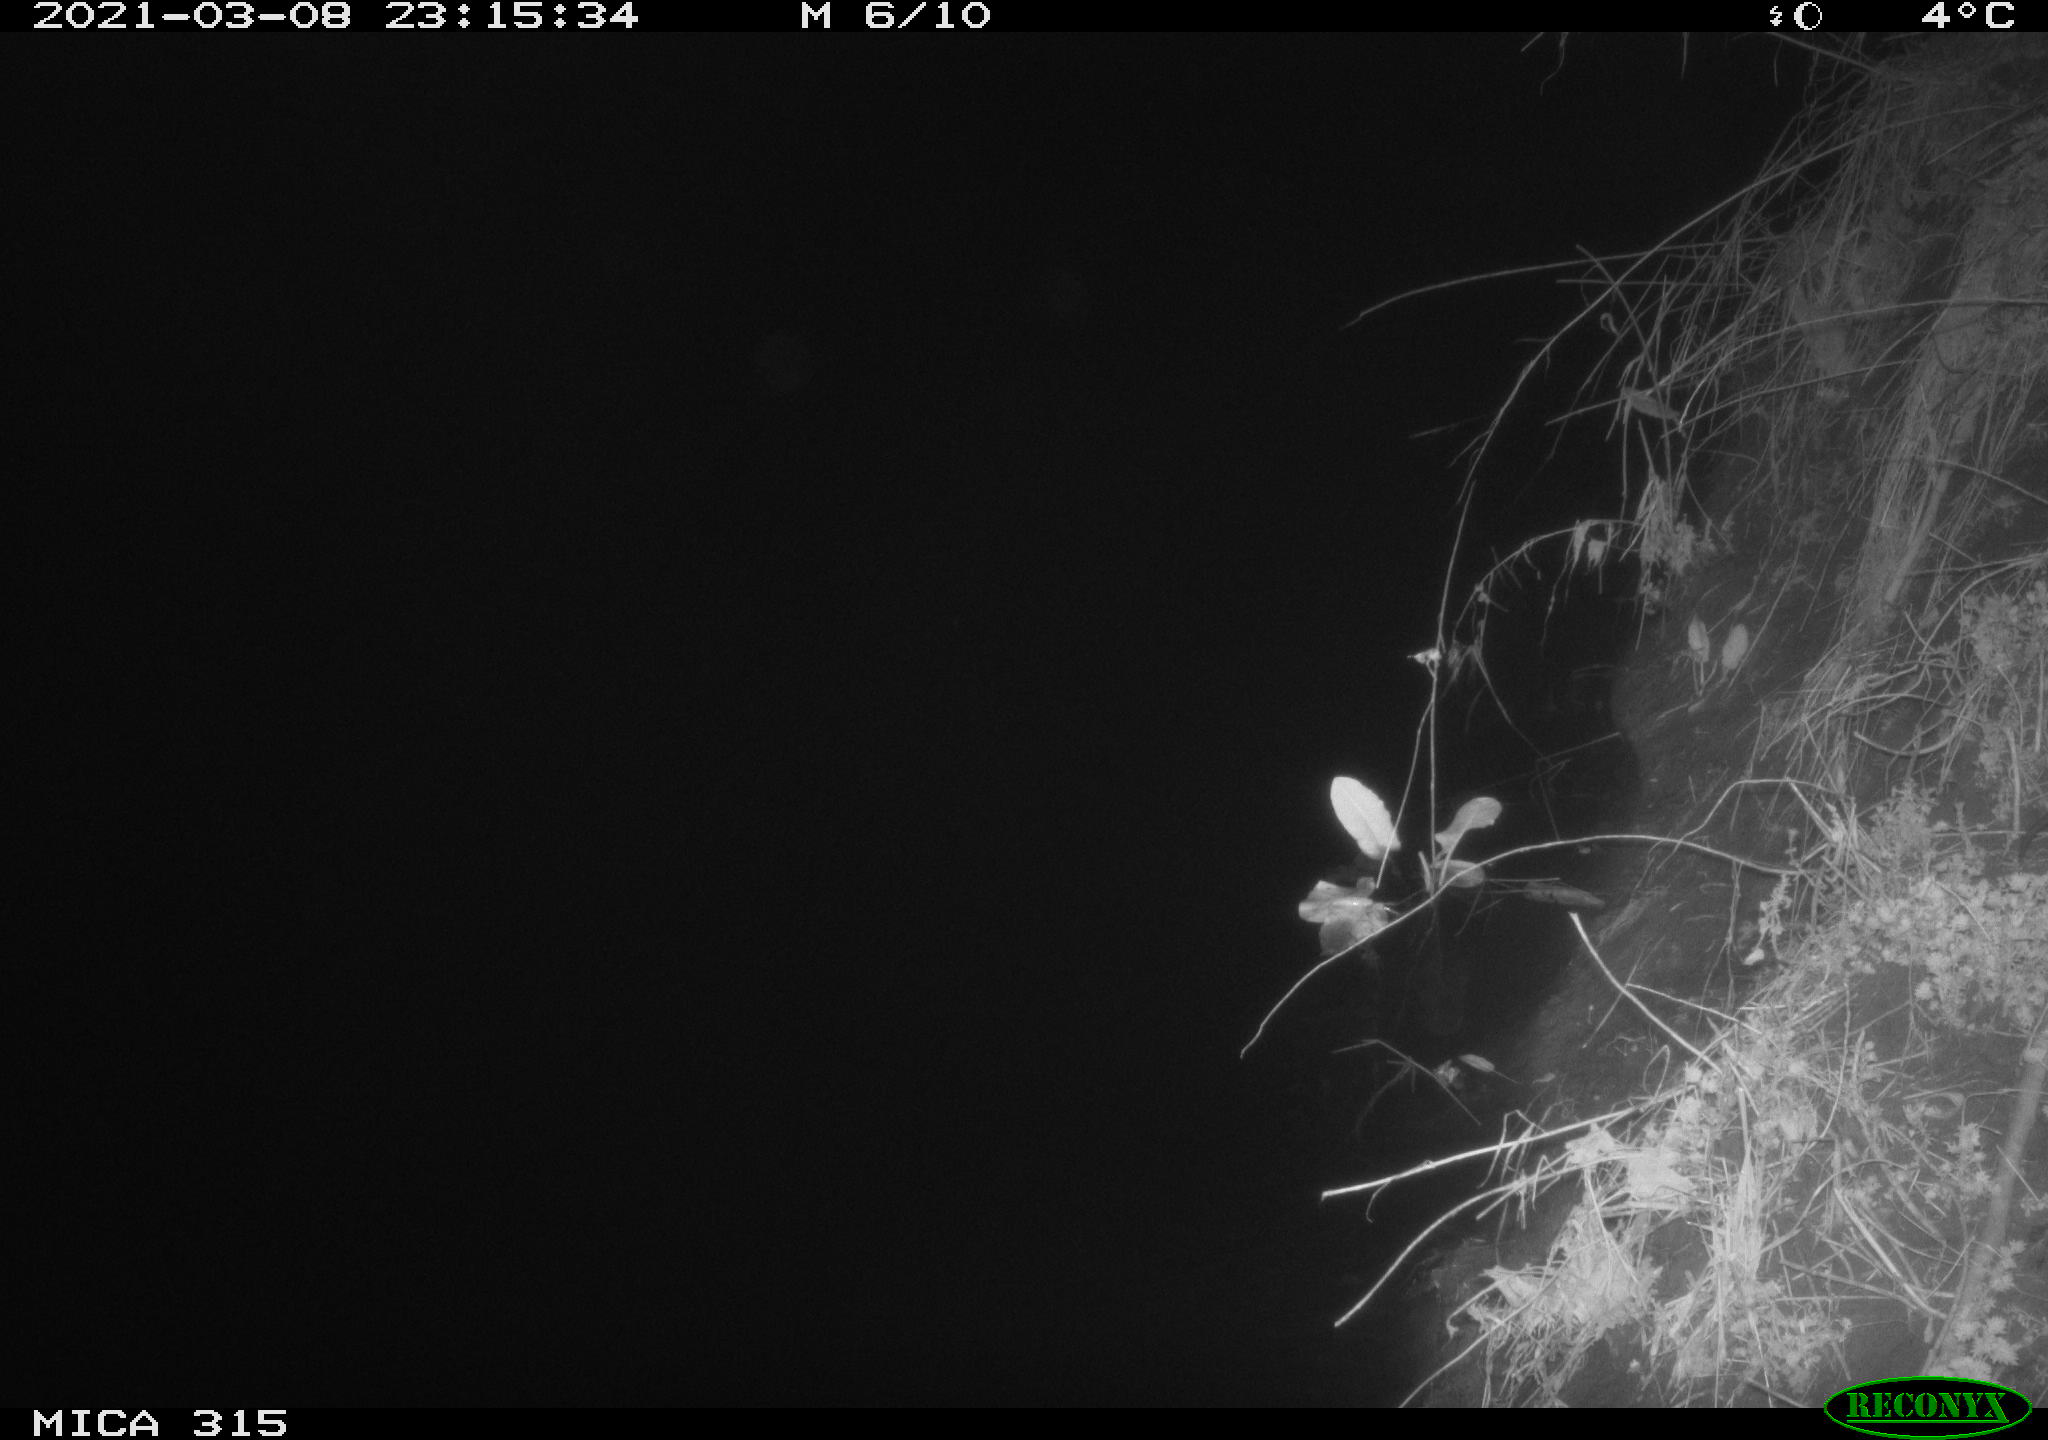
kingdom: Animalia
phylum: Chordata
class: Mammalia
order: Rodentia
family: Muridae
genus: Rattus
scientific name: Rattus norvegicus
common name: Brown rat
